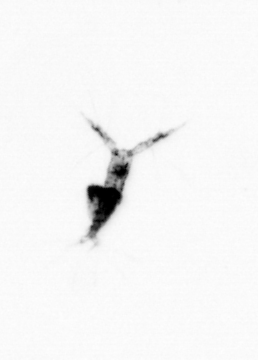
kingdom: Animalia
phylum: Arthropoda
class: Copepoda
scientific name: Copepoda
